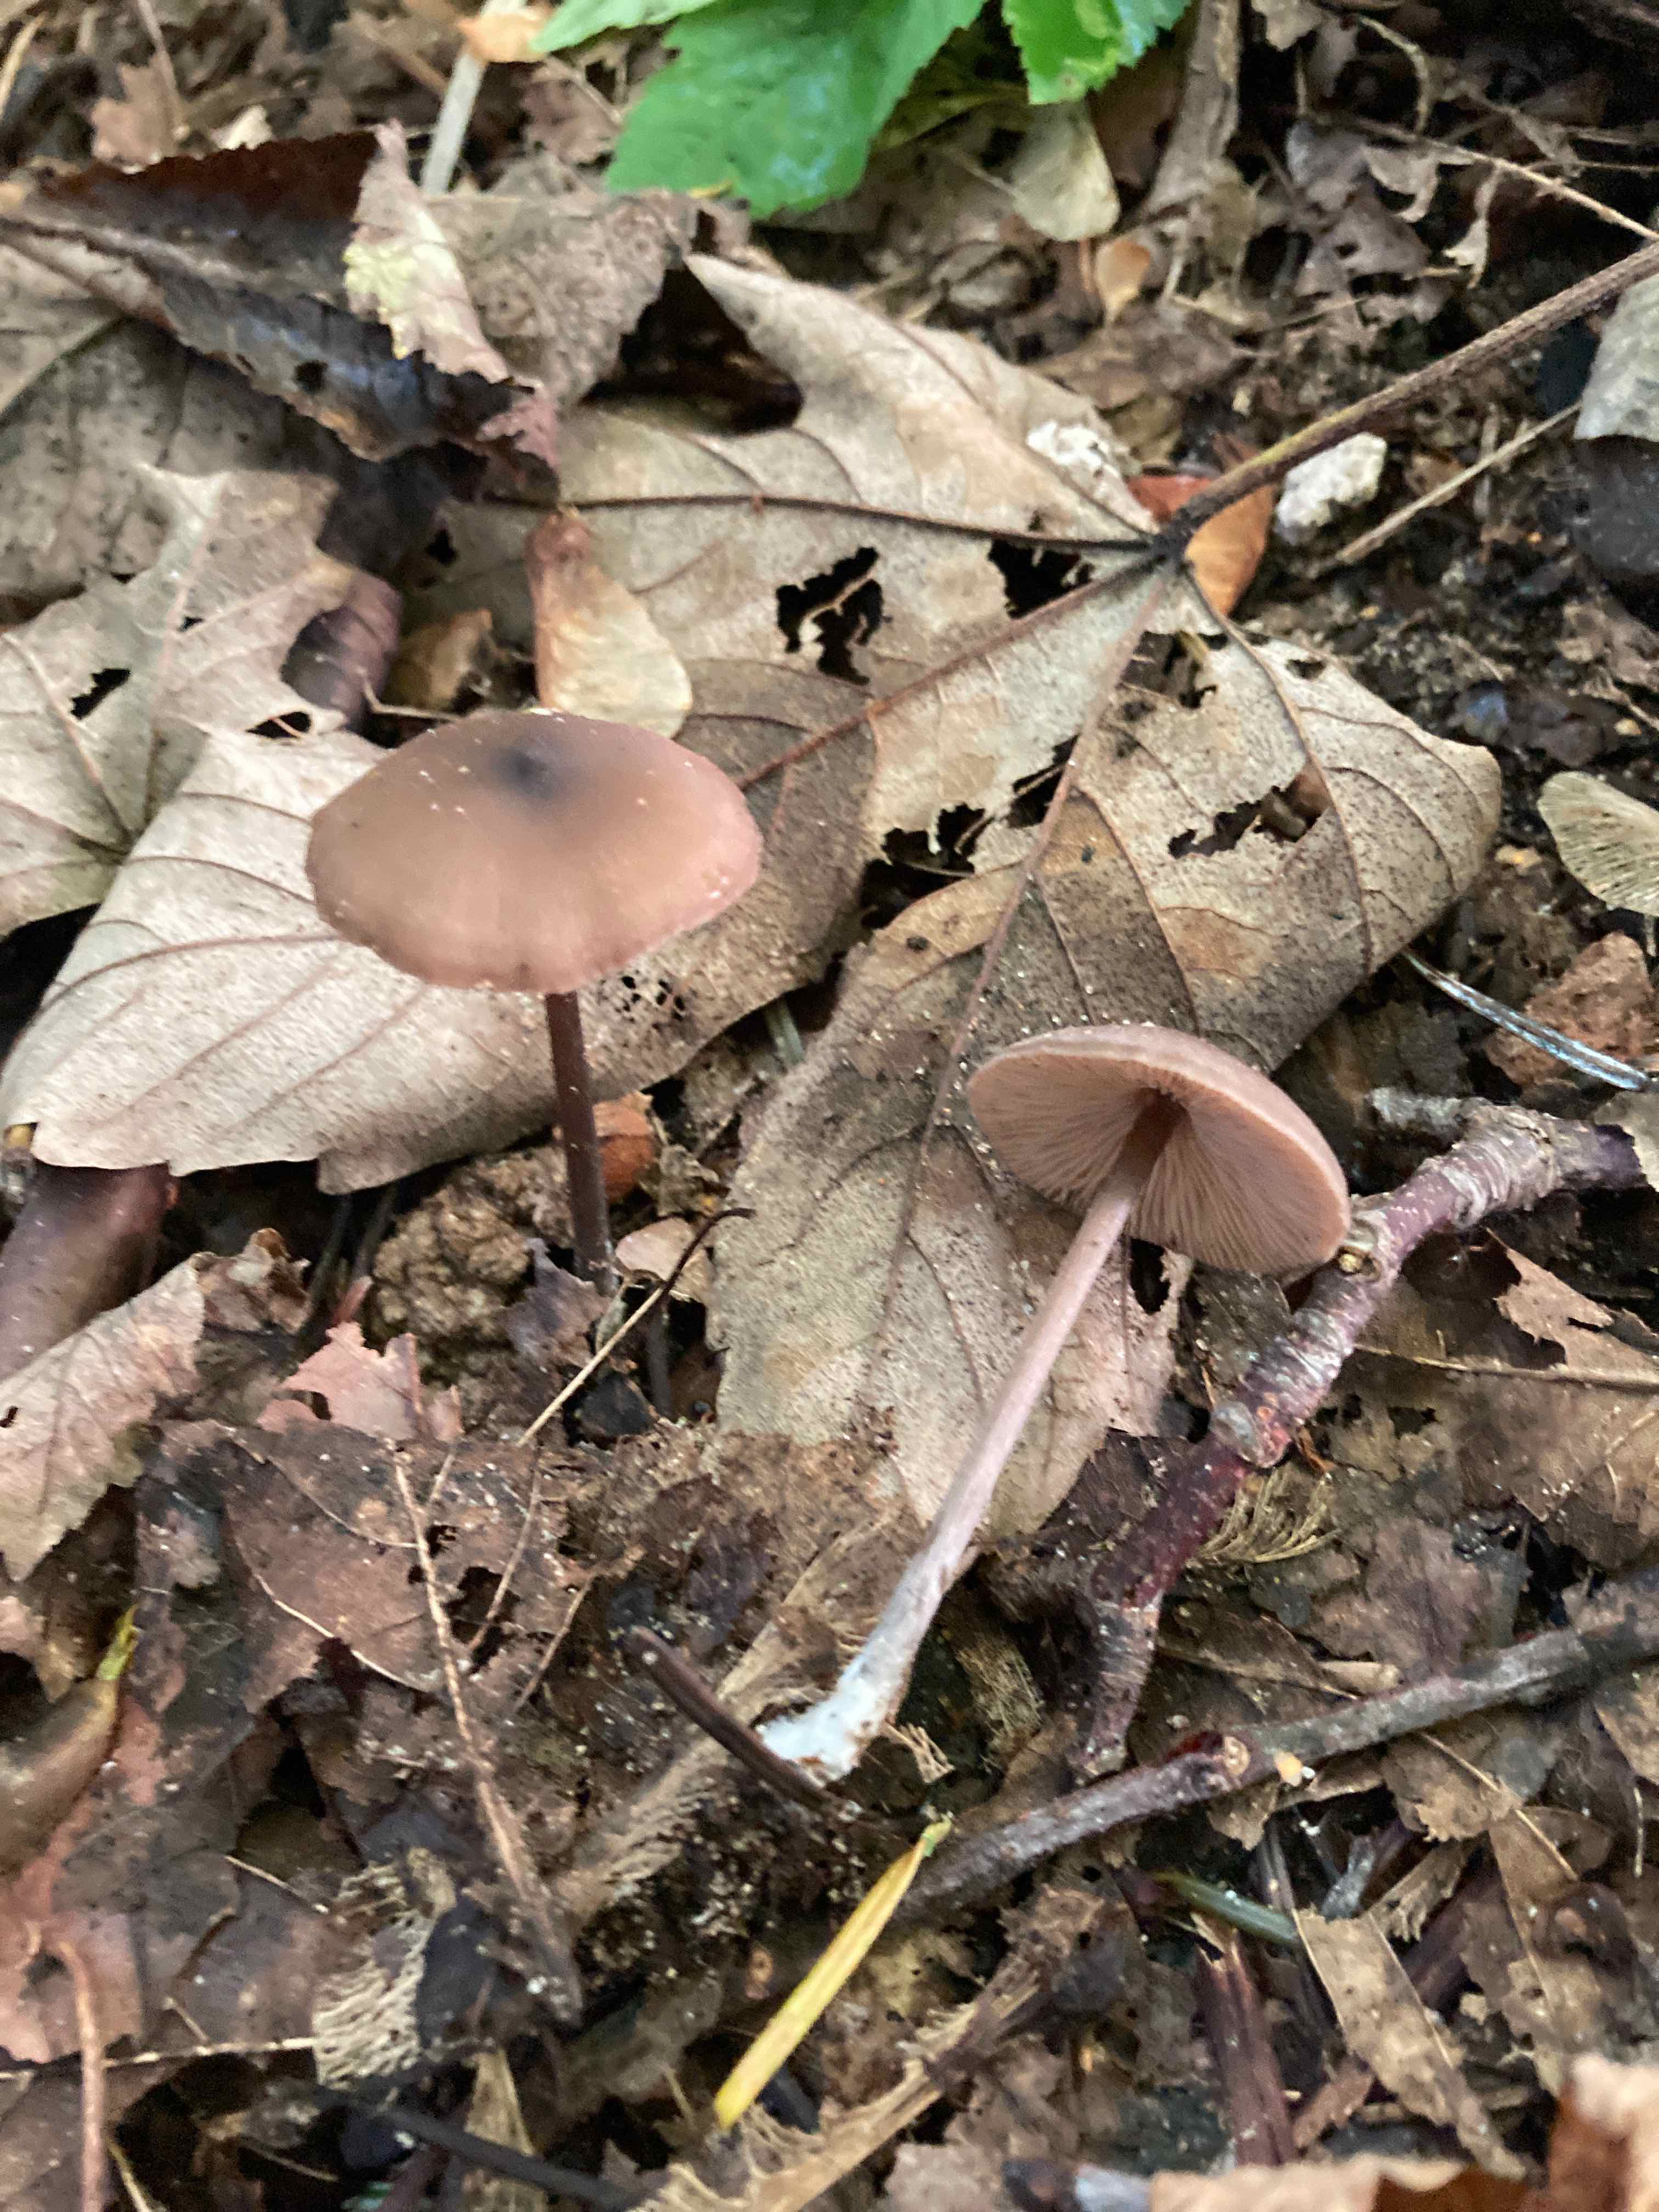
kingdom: Fungi
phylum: Basidiomycota
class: Agaricomycetes
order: Agaricales
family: Entolomataceae
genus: Entoloma
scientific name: Entoloma hebes
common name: krat-rødblad
